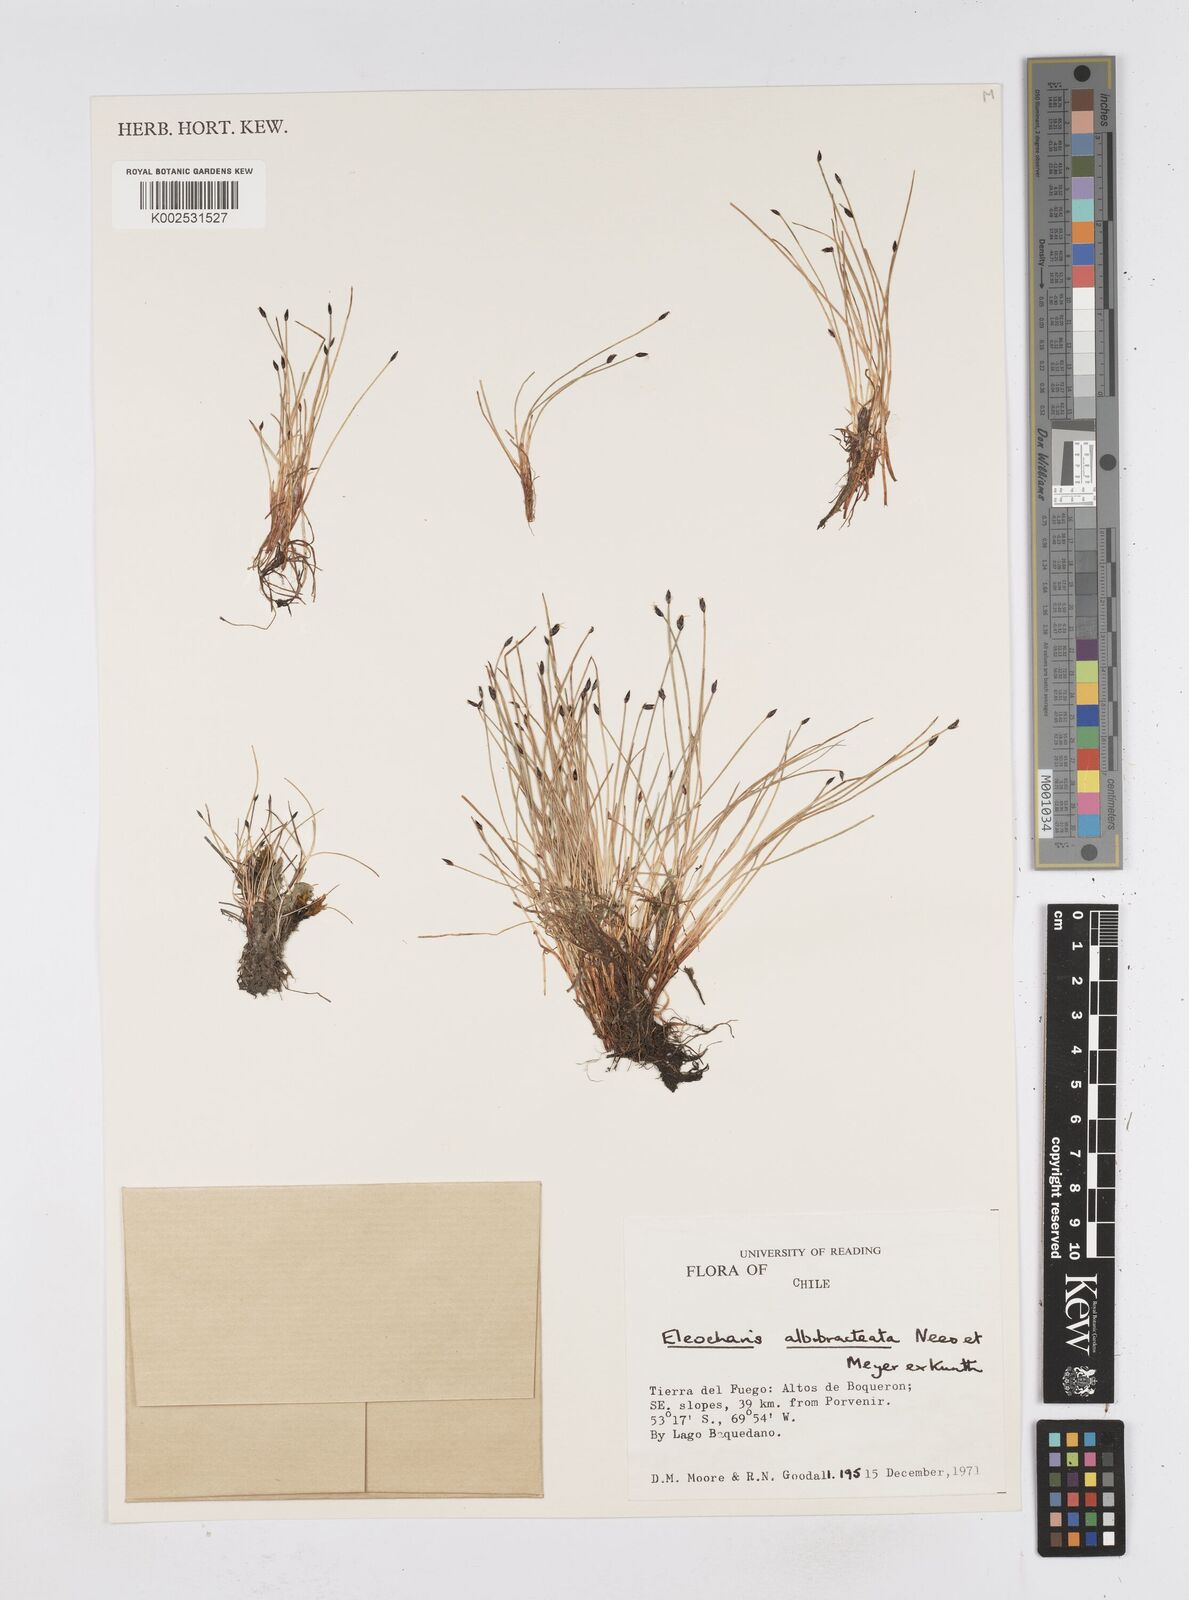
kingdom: Plantae
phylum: Tracheophyta
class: Liliopsida
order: Poales
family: Cyperaceae
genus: Eleocharis
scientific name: Eleocharis albibracteata
